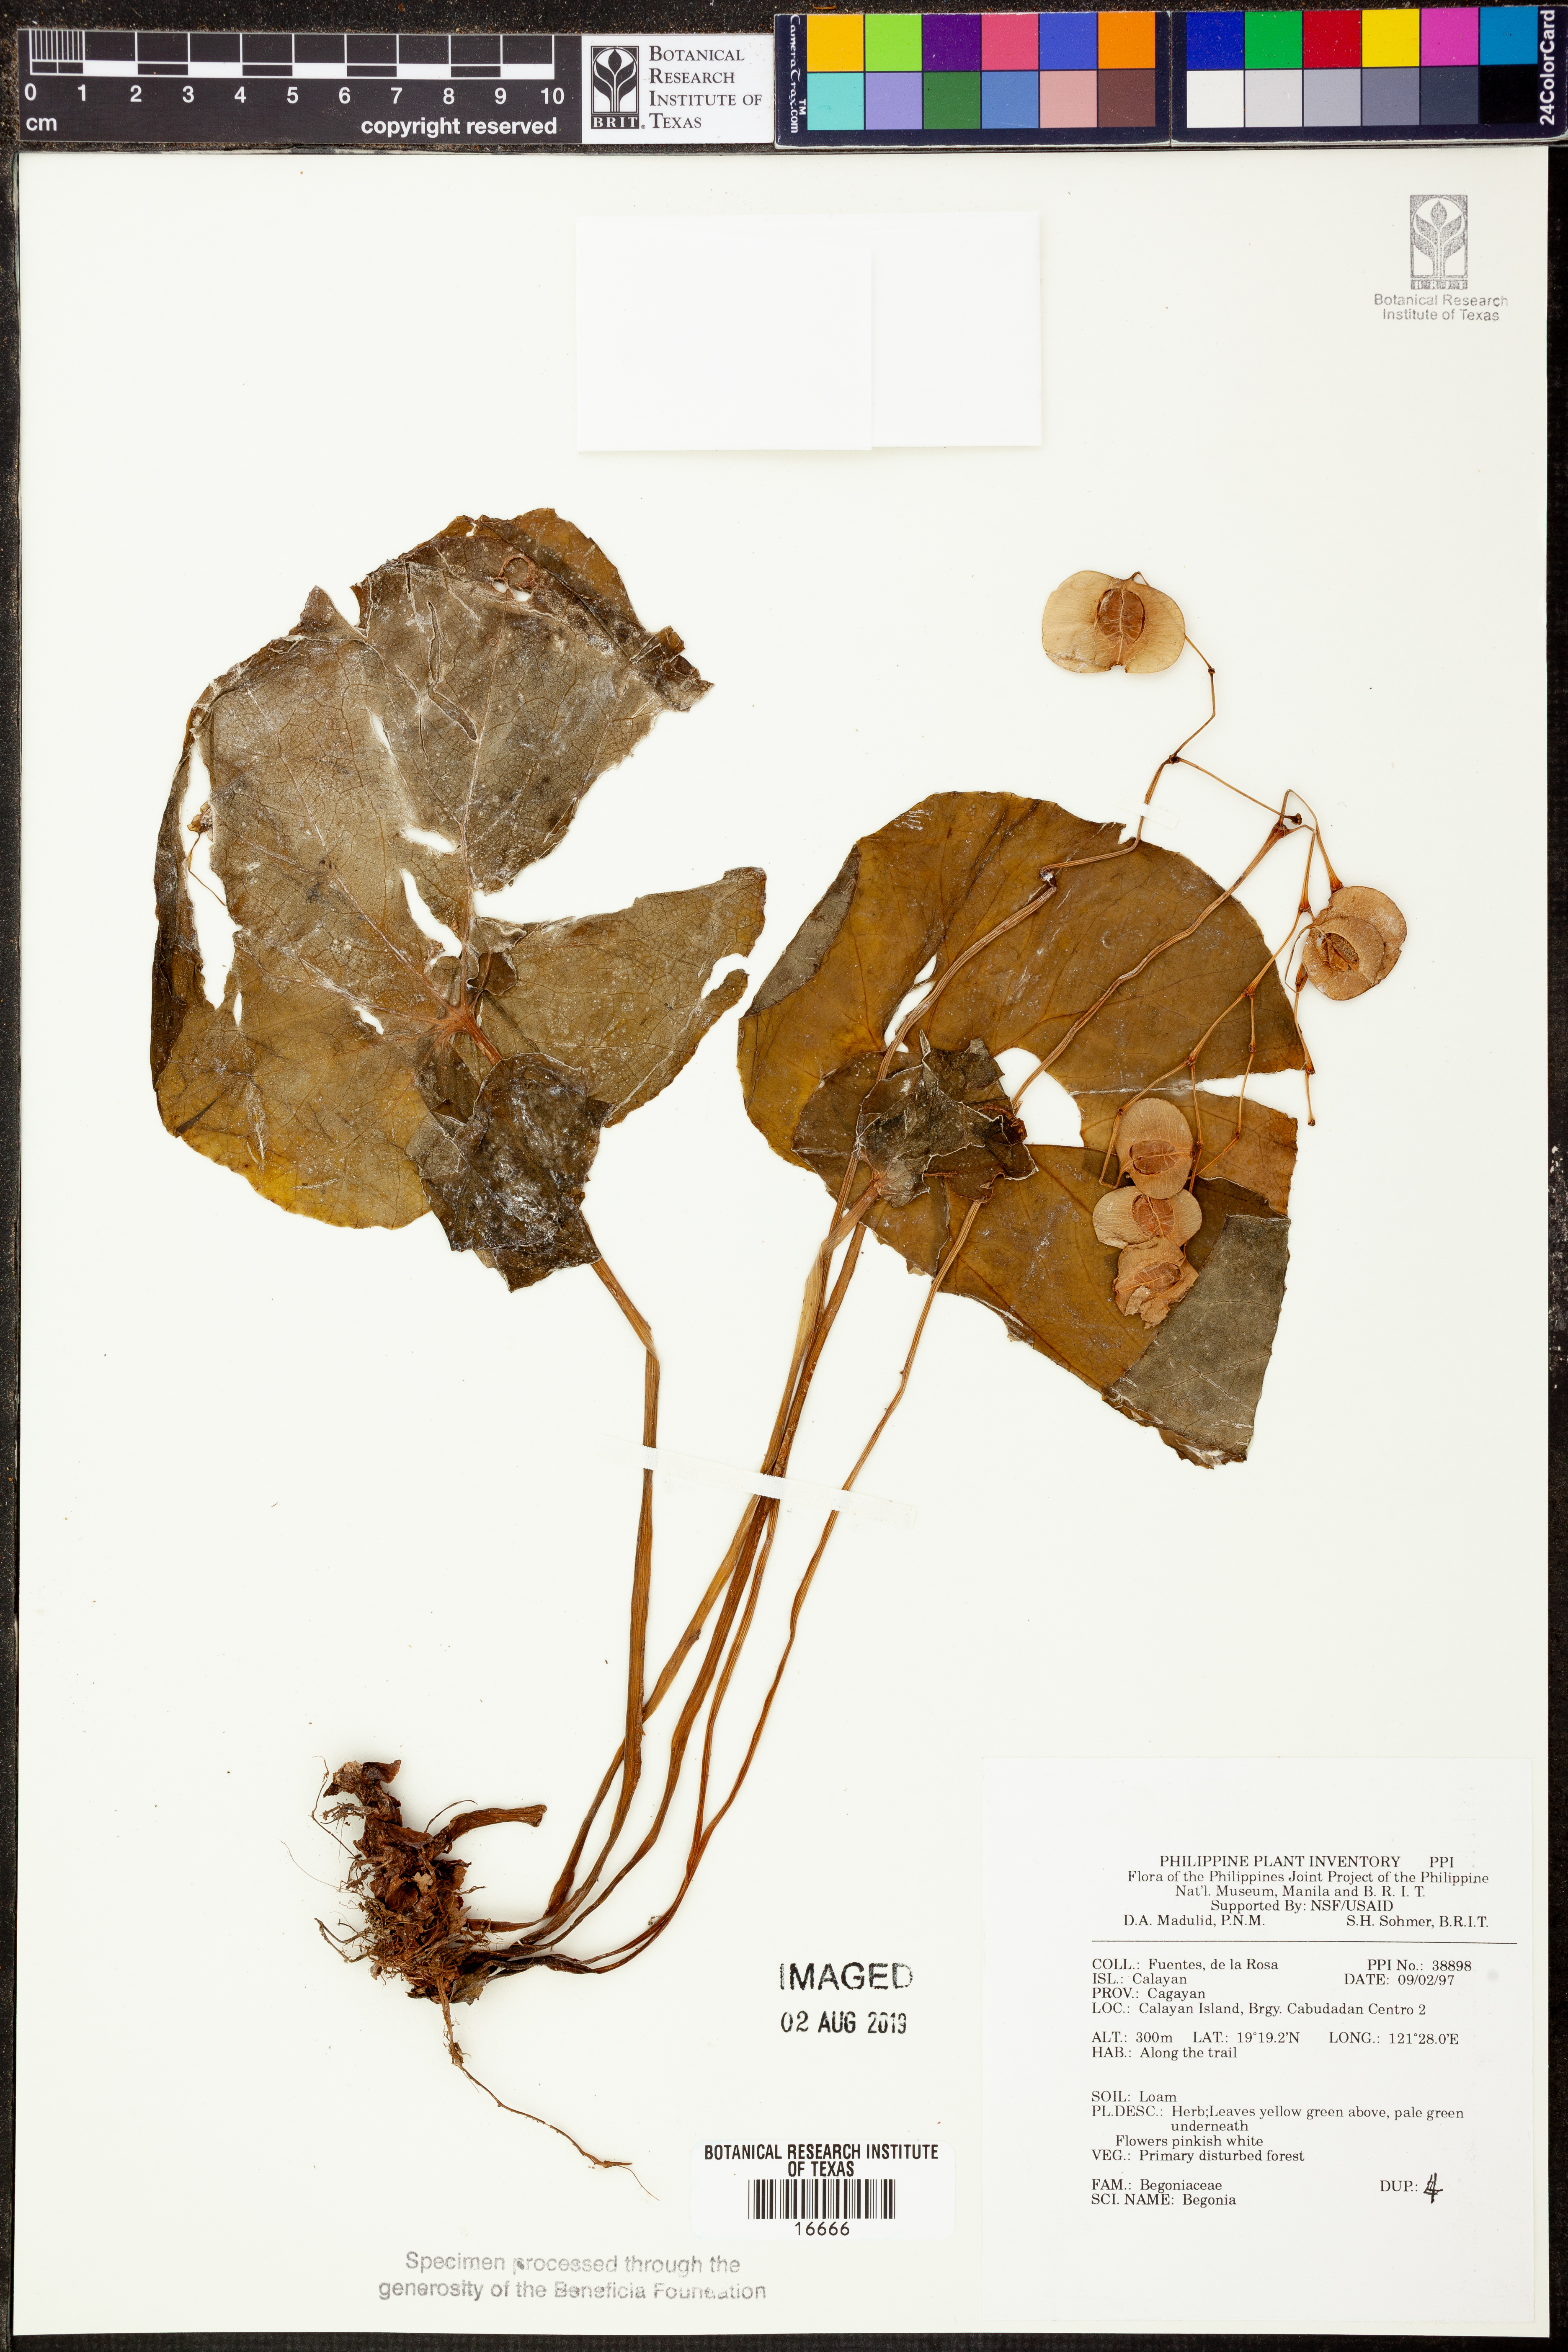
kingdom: Plantae
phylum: Tracheophyta
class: Magnoliopsida
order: Cucurbitales
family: Begoniaceae
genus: Begonia
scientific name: Begonia
